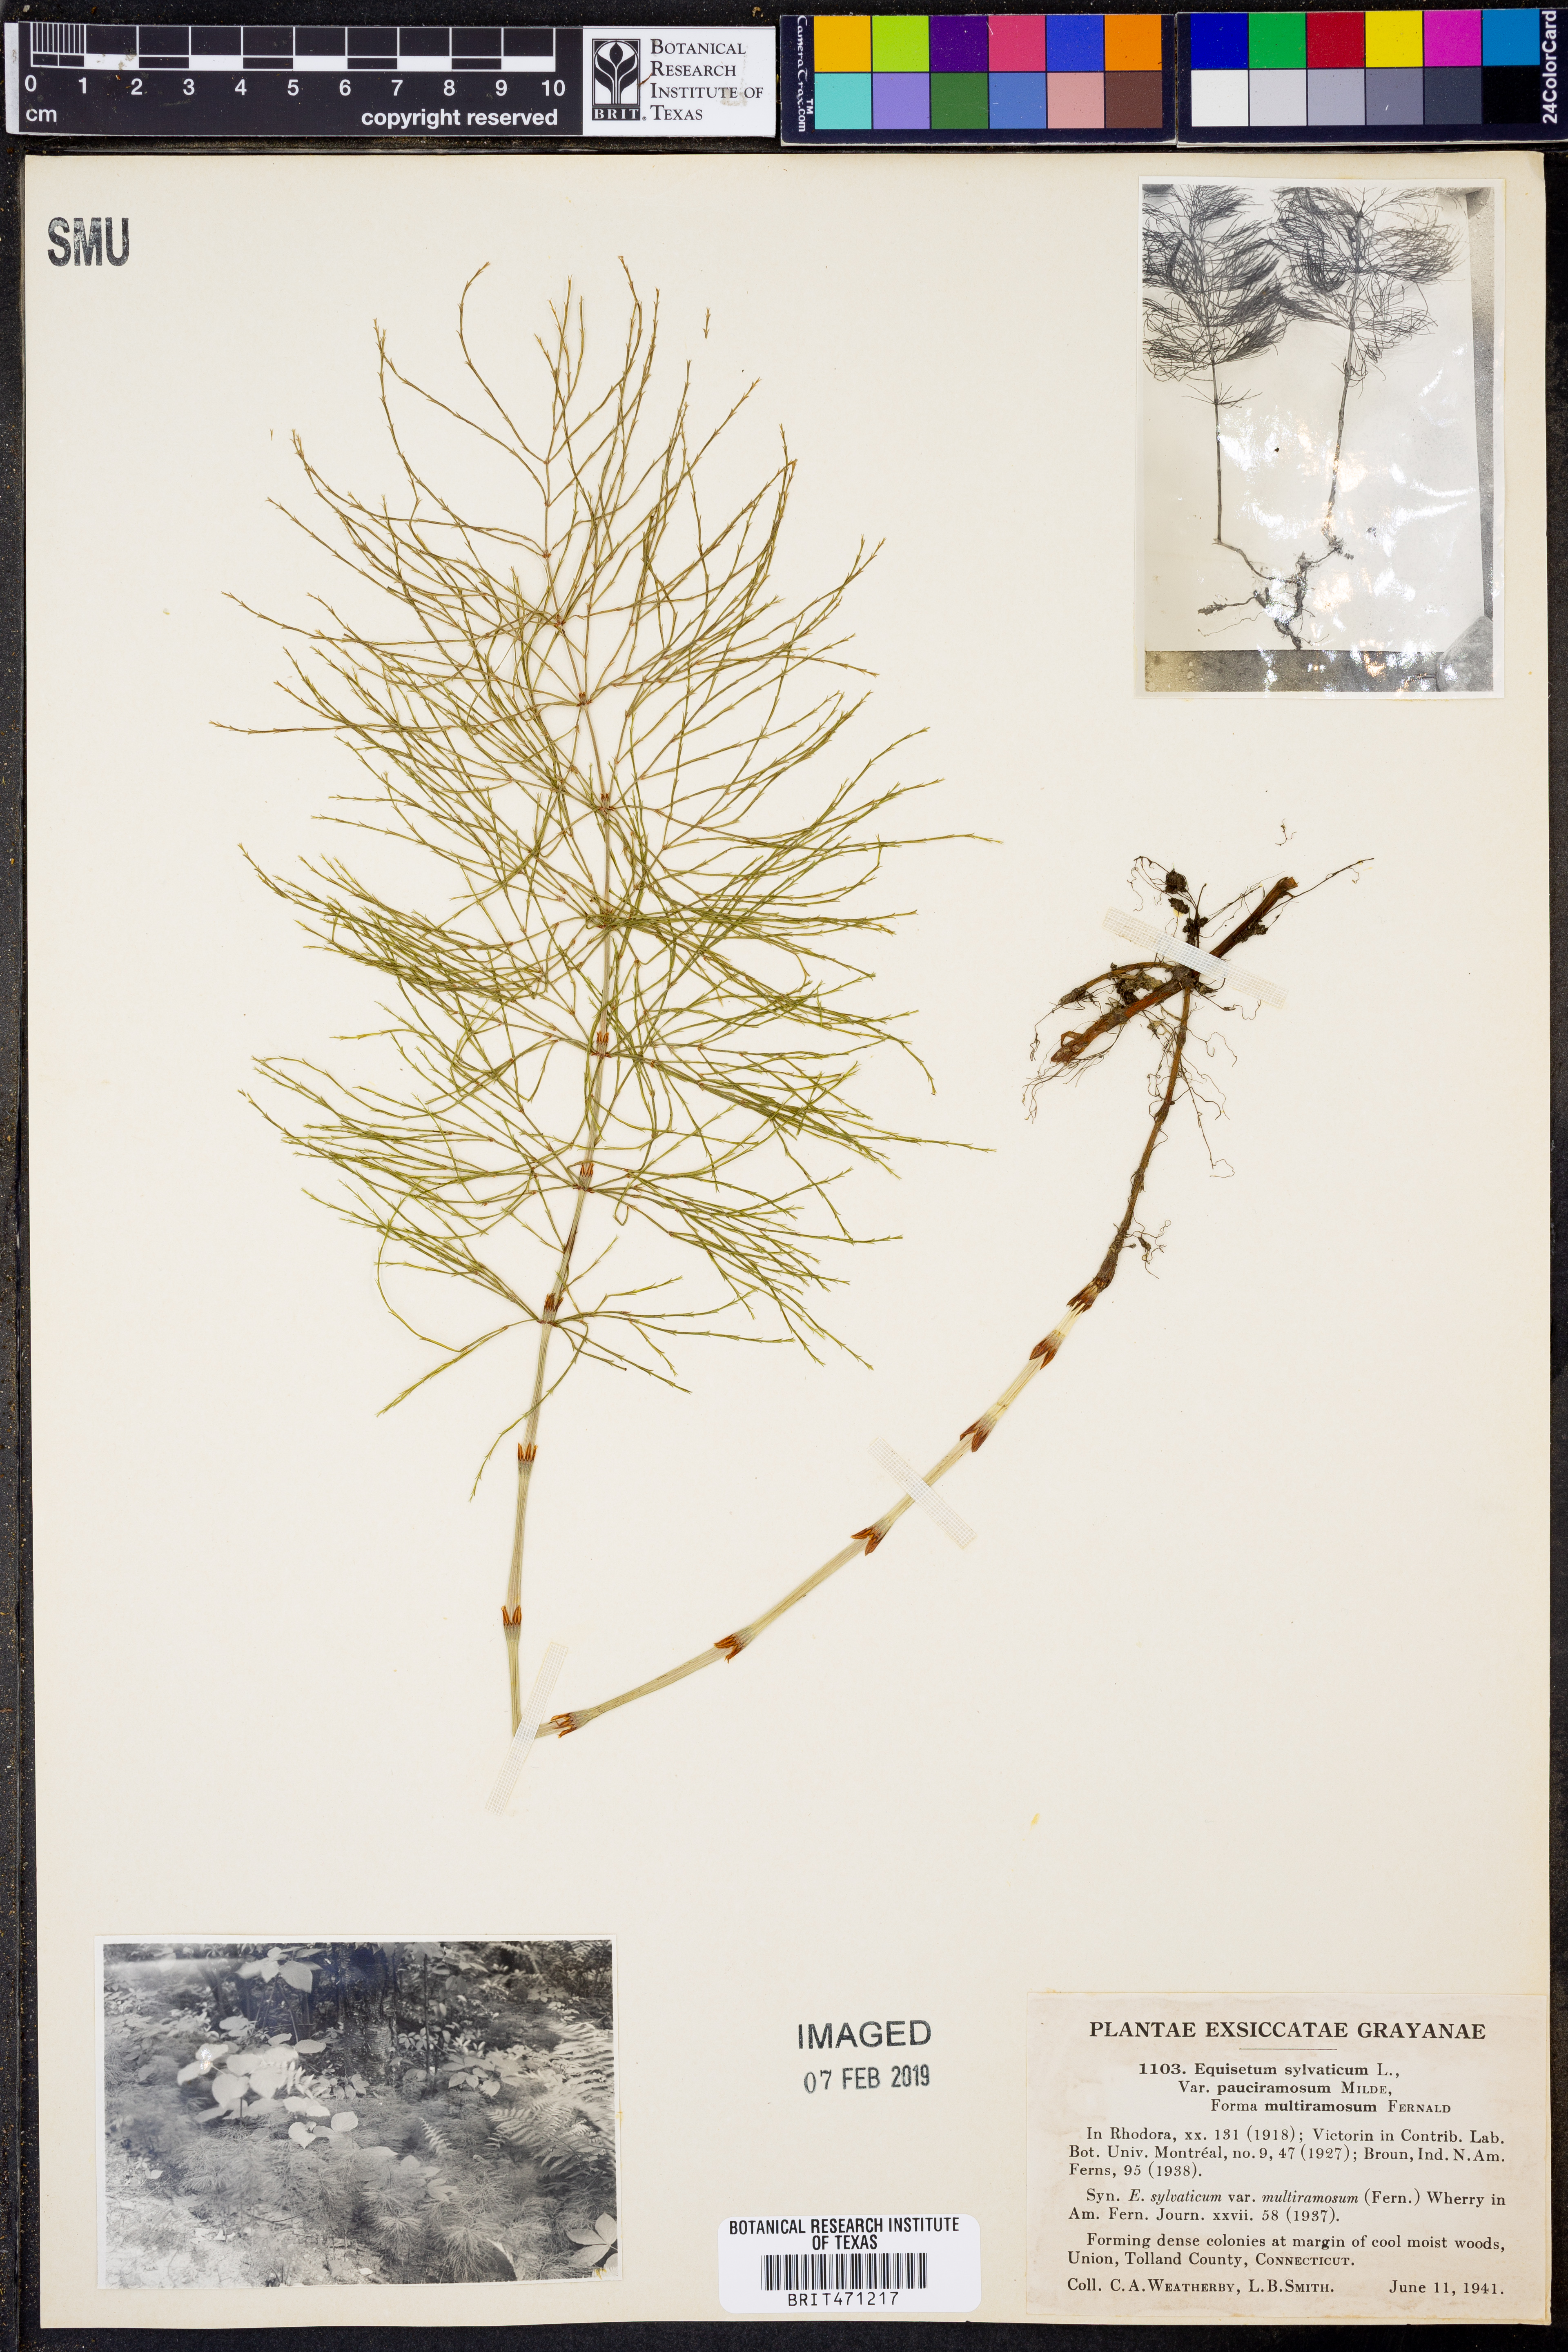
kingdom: Plantae
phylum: Tracheophyta
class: Polypodiopsida
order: Equisetales
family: Equisetaceae
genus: Equisetum
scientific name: Equisetum sylvaticum
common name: Wood horsetail
